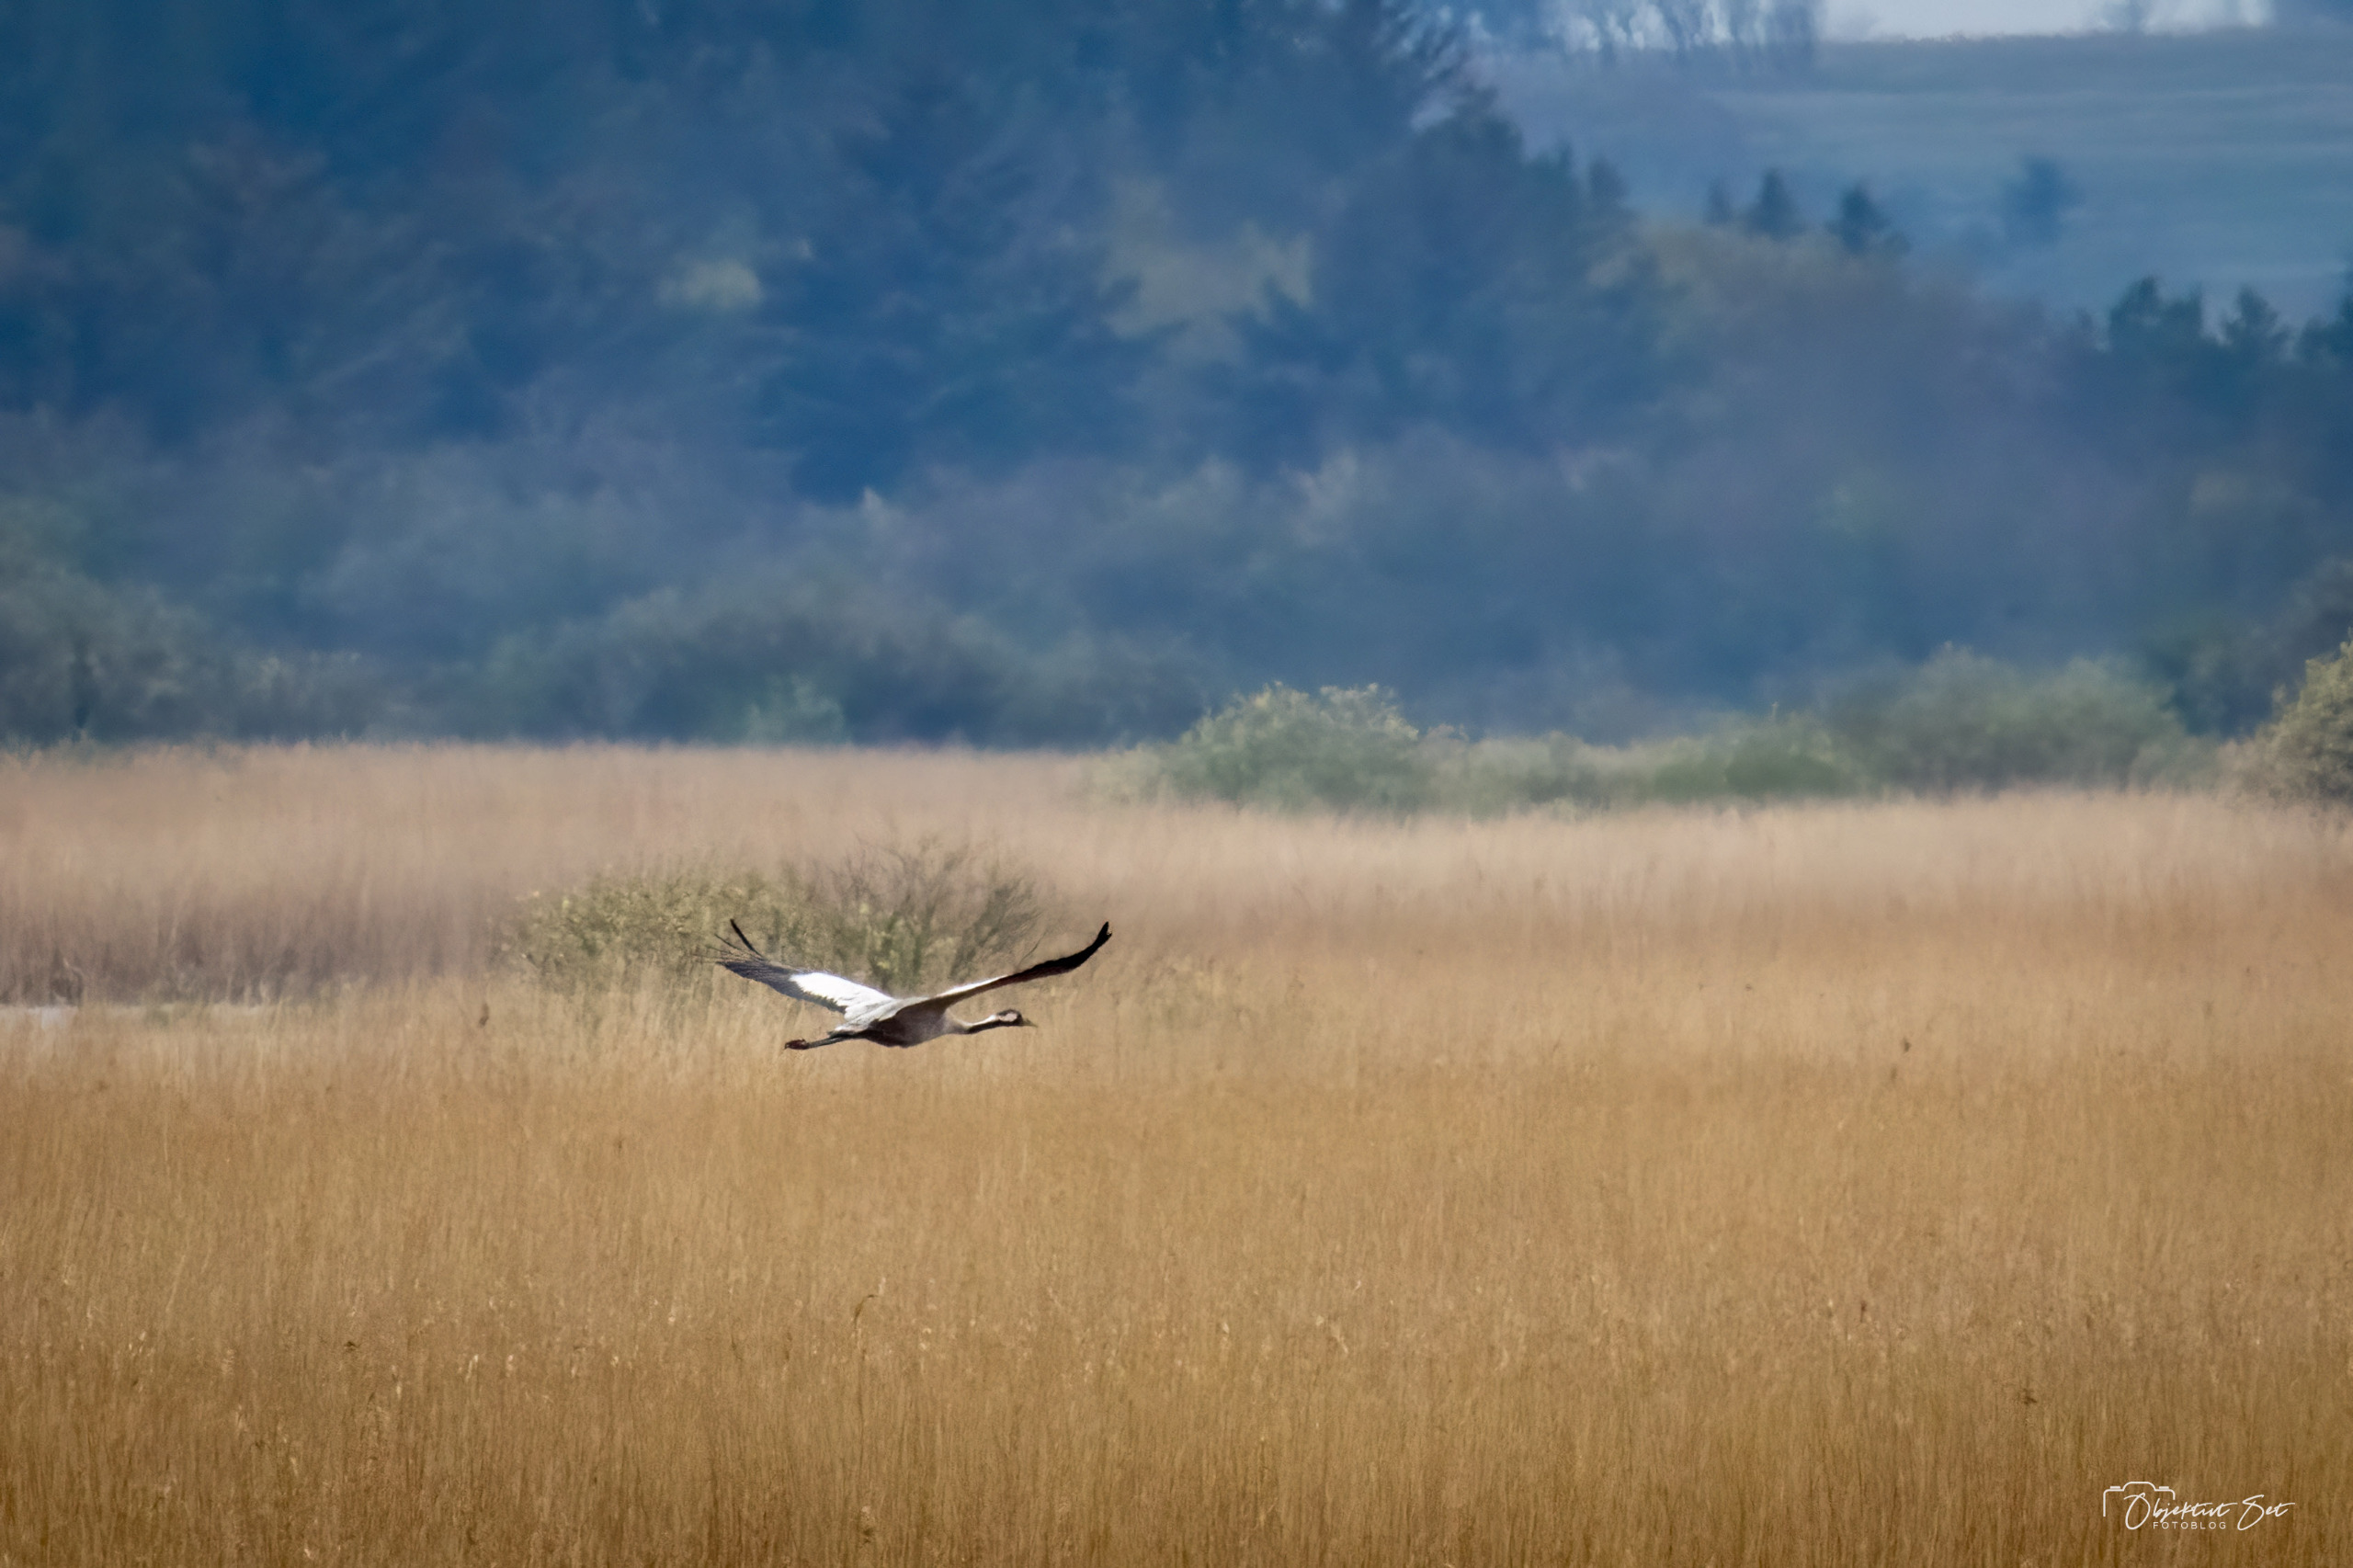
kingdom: Animalia
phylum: Chordata
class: Aves
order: Gruiformes
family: Gruidae
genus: Grus
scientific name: Grus grus
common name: Trane
